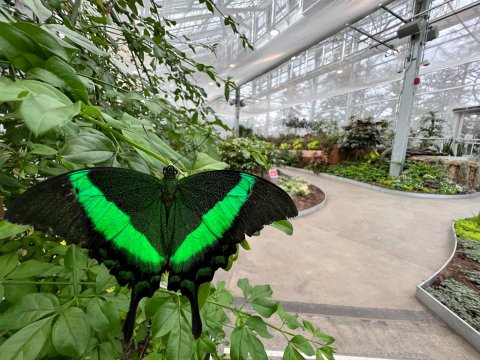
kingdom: Animalia
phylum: Arthropoda
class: Insecta
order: Lepidoptera
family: Nymphalidae
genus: Danaus
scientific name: Danaus plexippus
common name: Monarch
